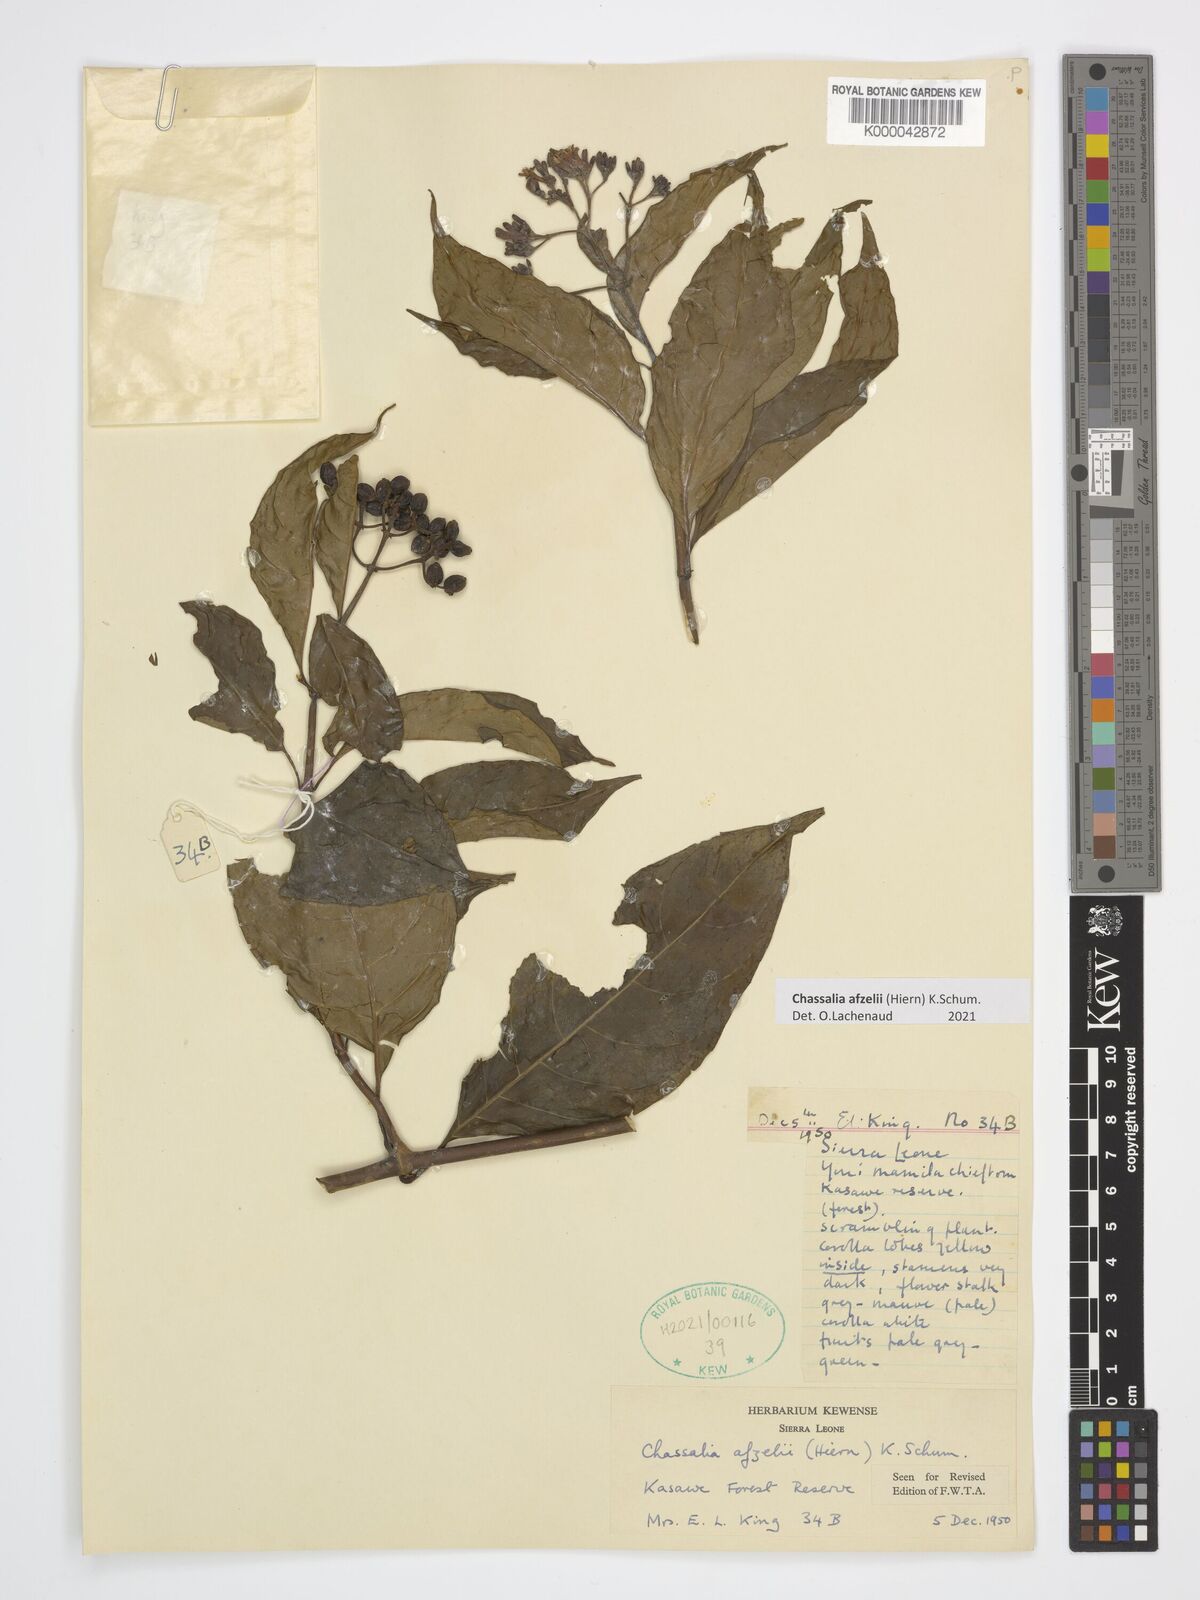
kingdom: Plantae
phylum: Tracheophyta
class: Magnoliopsida
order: Gentianales
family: Rubiaceae
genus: Chassalia
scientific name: Chassalia afzelii
